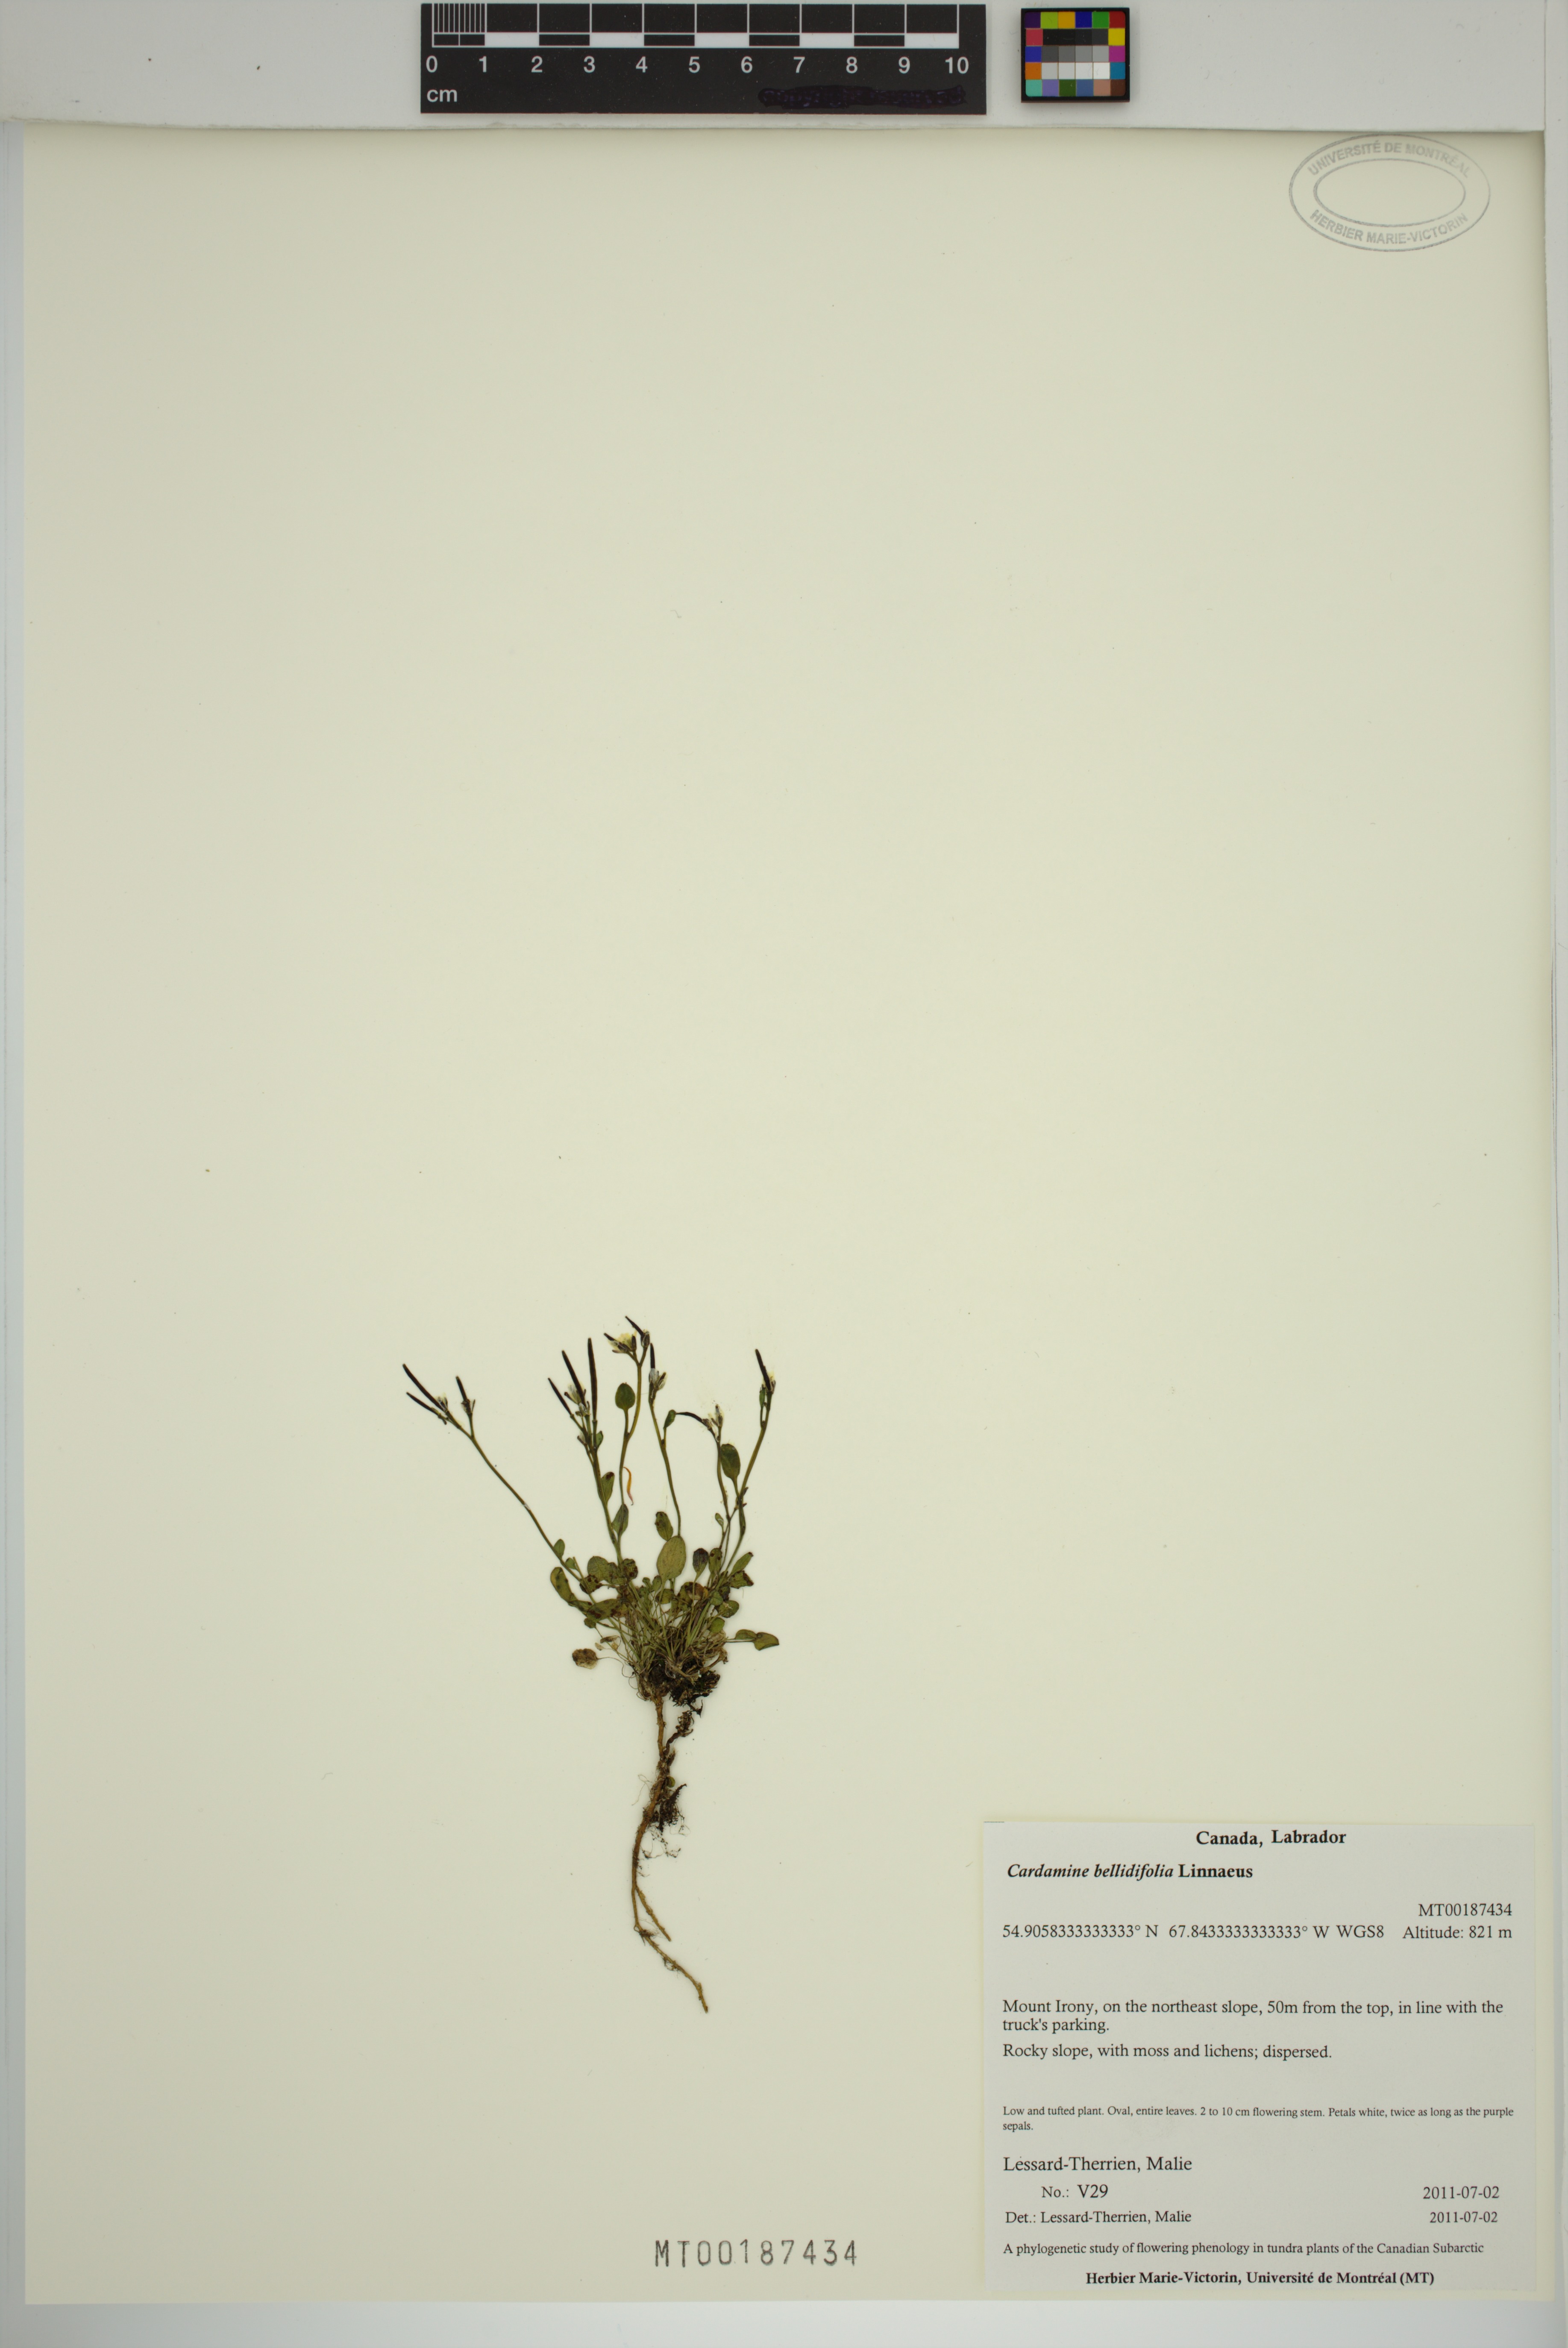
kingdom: Plantae
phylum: Tracheophyta
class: Magnoliopsida
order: Brassicales
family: Brassicaceae
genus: Cardamine
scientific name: Cardamine bellidifolia
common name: Alpine bittercress
